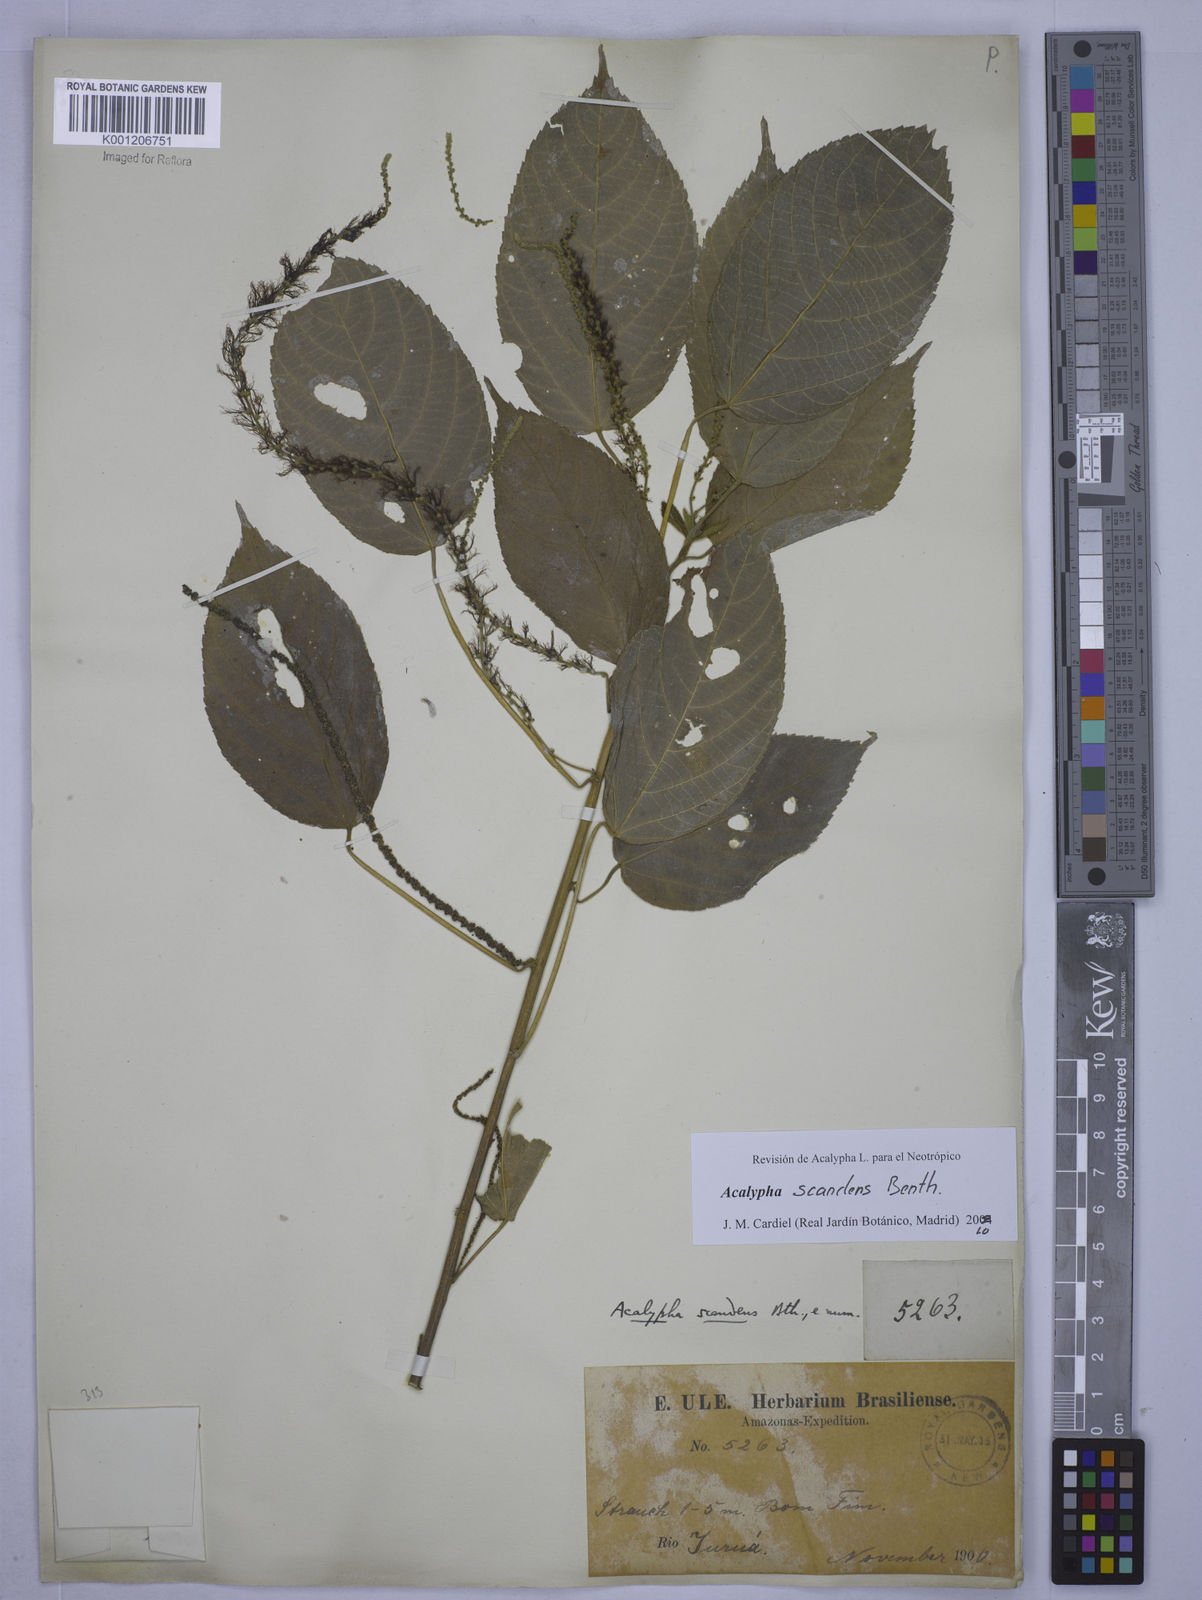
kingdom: Plantae
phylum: Tracheophyta
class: Magnoliopsida
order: Malpighiales
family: Euphorbiaceae
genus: Acalypha
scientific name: Acalypha scandens
